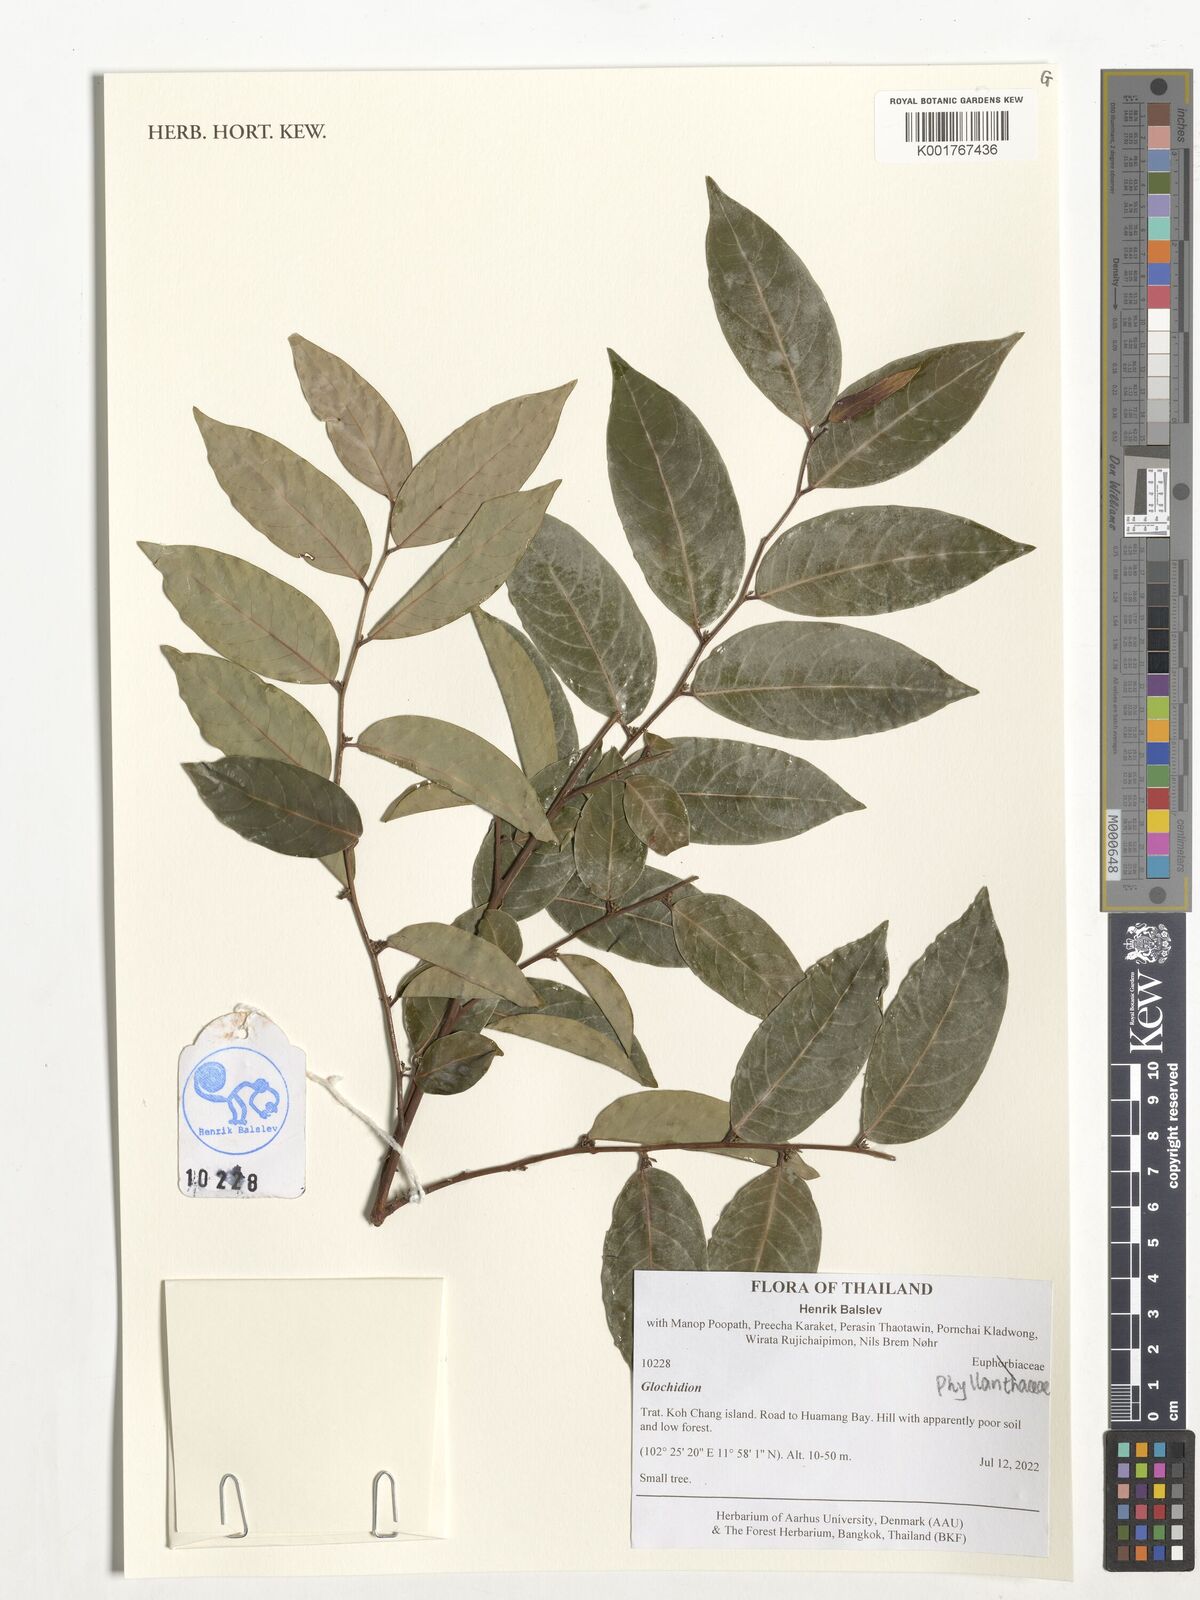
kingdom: Plantae
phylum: Tracheophyta
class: Magnoliopsida
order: Malpighiales
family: Phyllanthaceae
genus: Glochidion
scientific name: Glochidion
